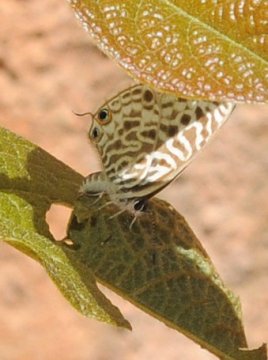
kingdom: Animalia
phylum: Arthropoda
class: Insecta
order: Lepidoptera
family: Lycaenidae
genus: Leptotes
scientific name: Leptotes pirithous
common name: Lang's Short-tailed Blue
